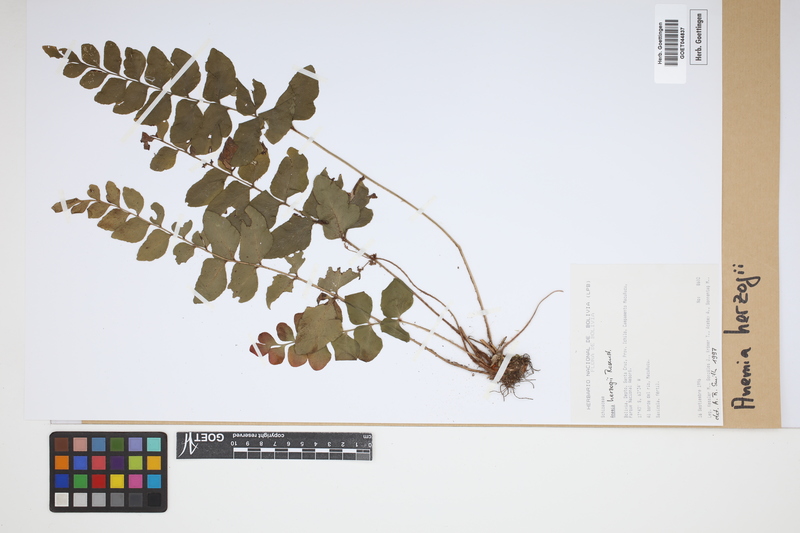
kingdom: Plantae
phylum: Tracheophyta
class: Polypodiopsida
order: Schizaeales
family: Anemiaceae
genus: Anemia
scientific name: Anemia herzogii
